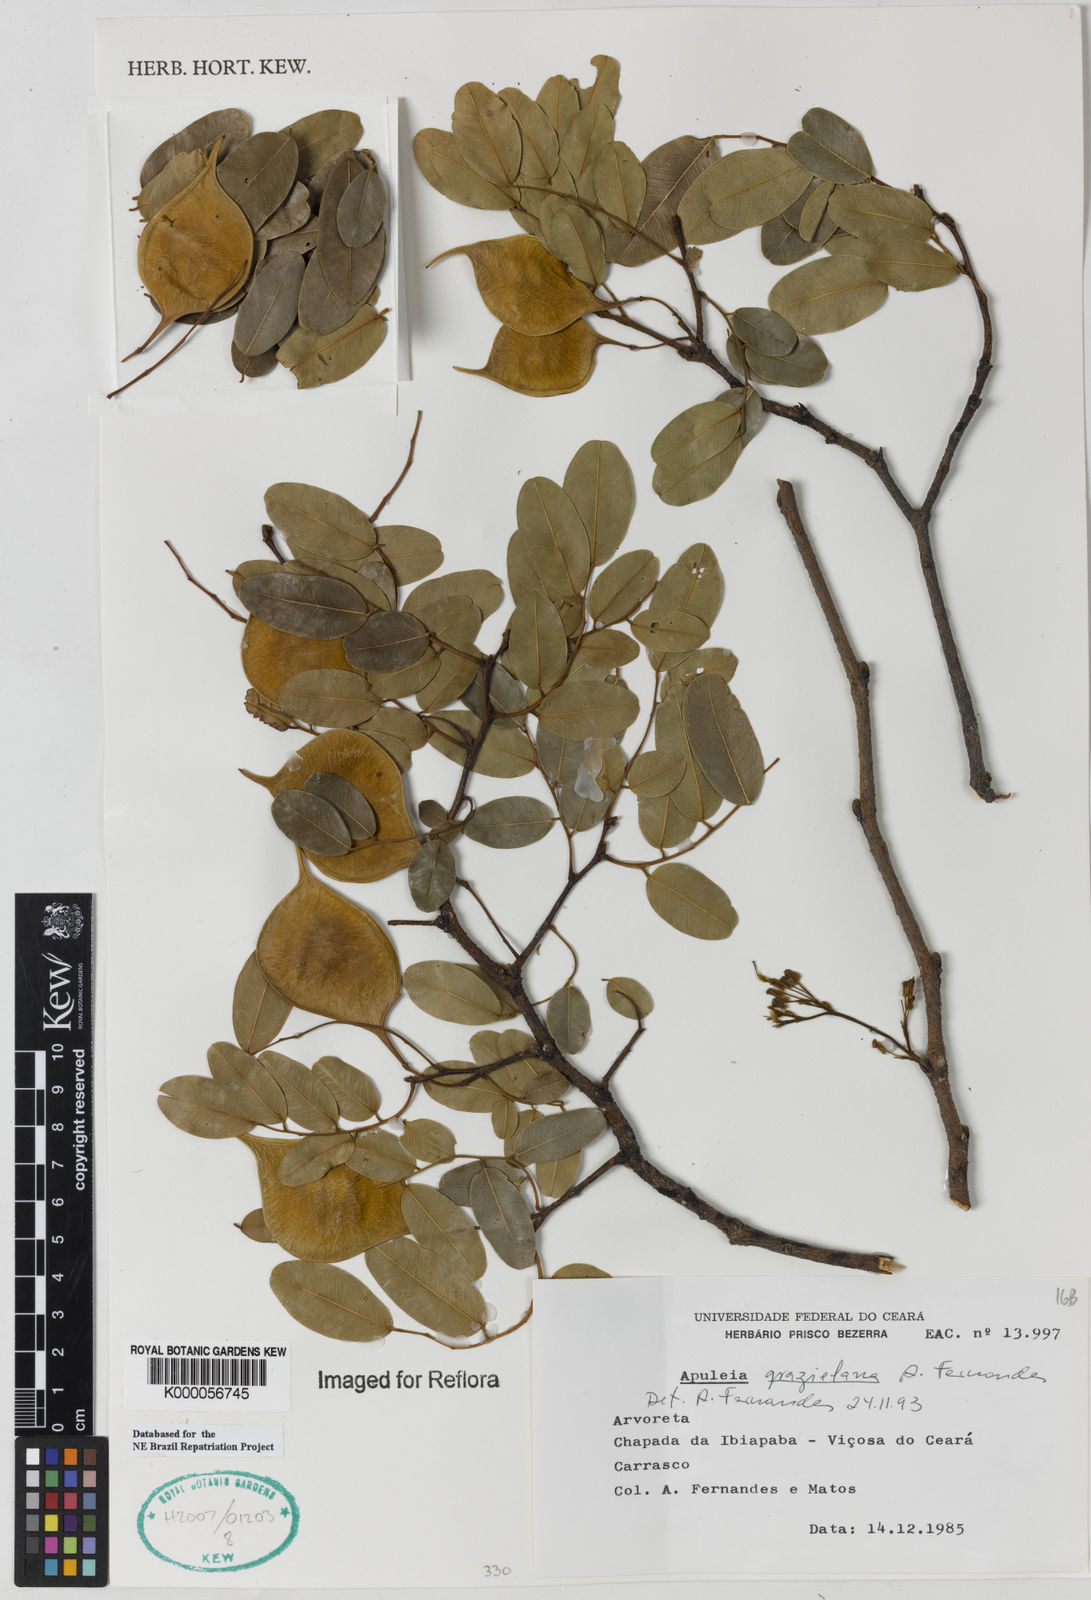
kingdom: Plantae
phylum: Tracheophyta
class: Magnoliopsida
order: Fabales
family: Fabaceae
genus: Apuleia
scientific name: Apuleia leiocarpa
